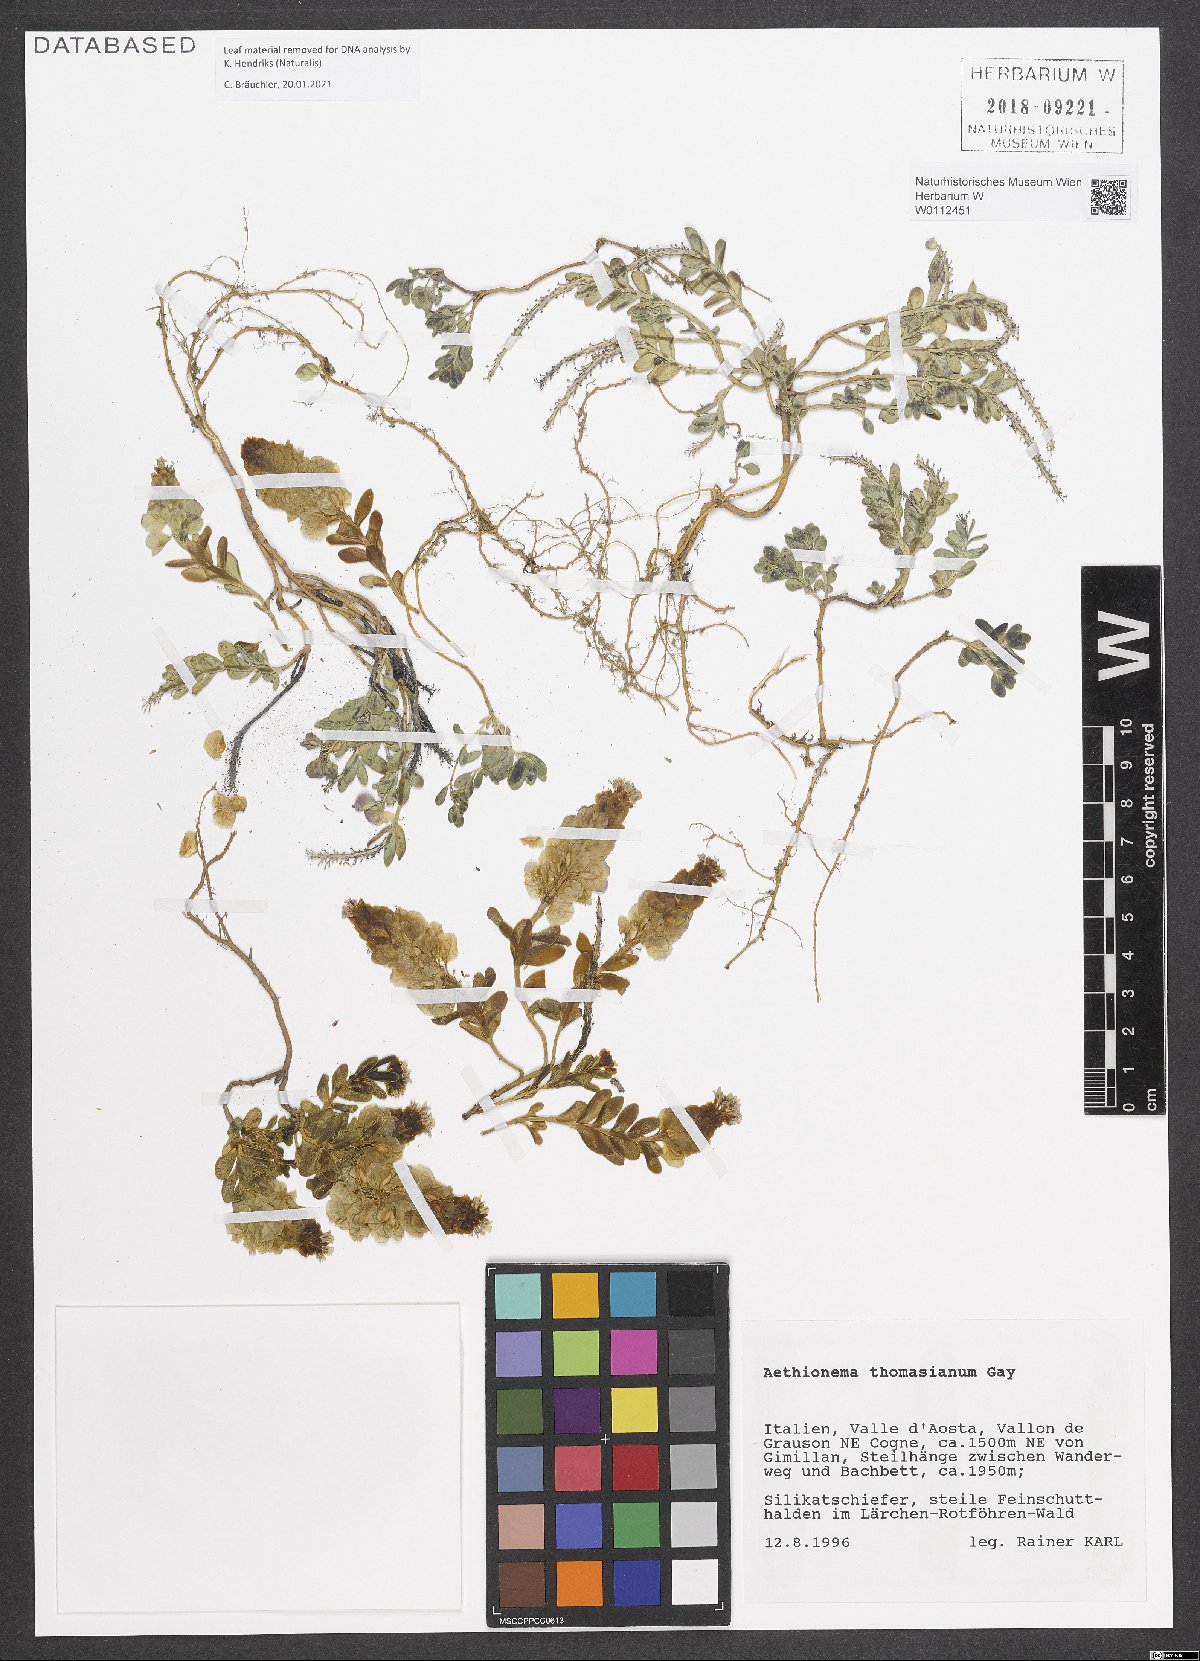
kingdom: Plantae
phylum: Tracheophyta
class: Magnoliopsida
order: Brassicales
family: Brassicaceae
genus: Aethionema
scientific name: Aethionema thomasianum
